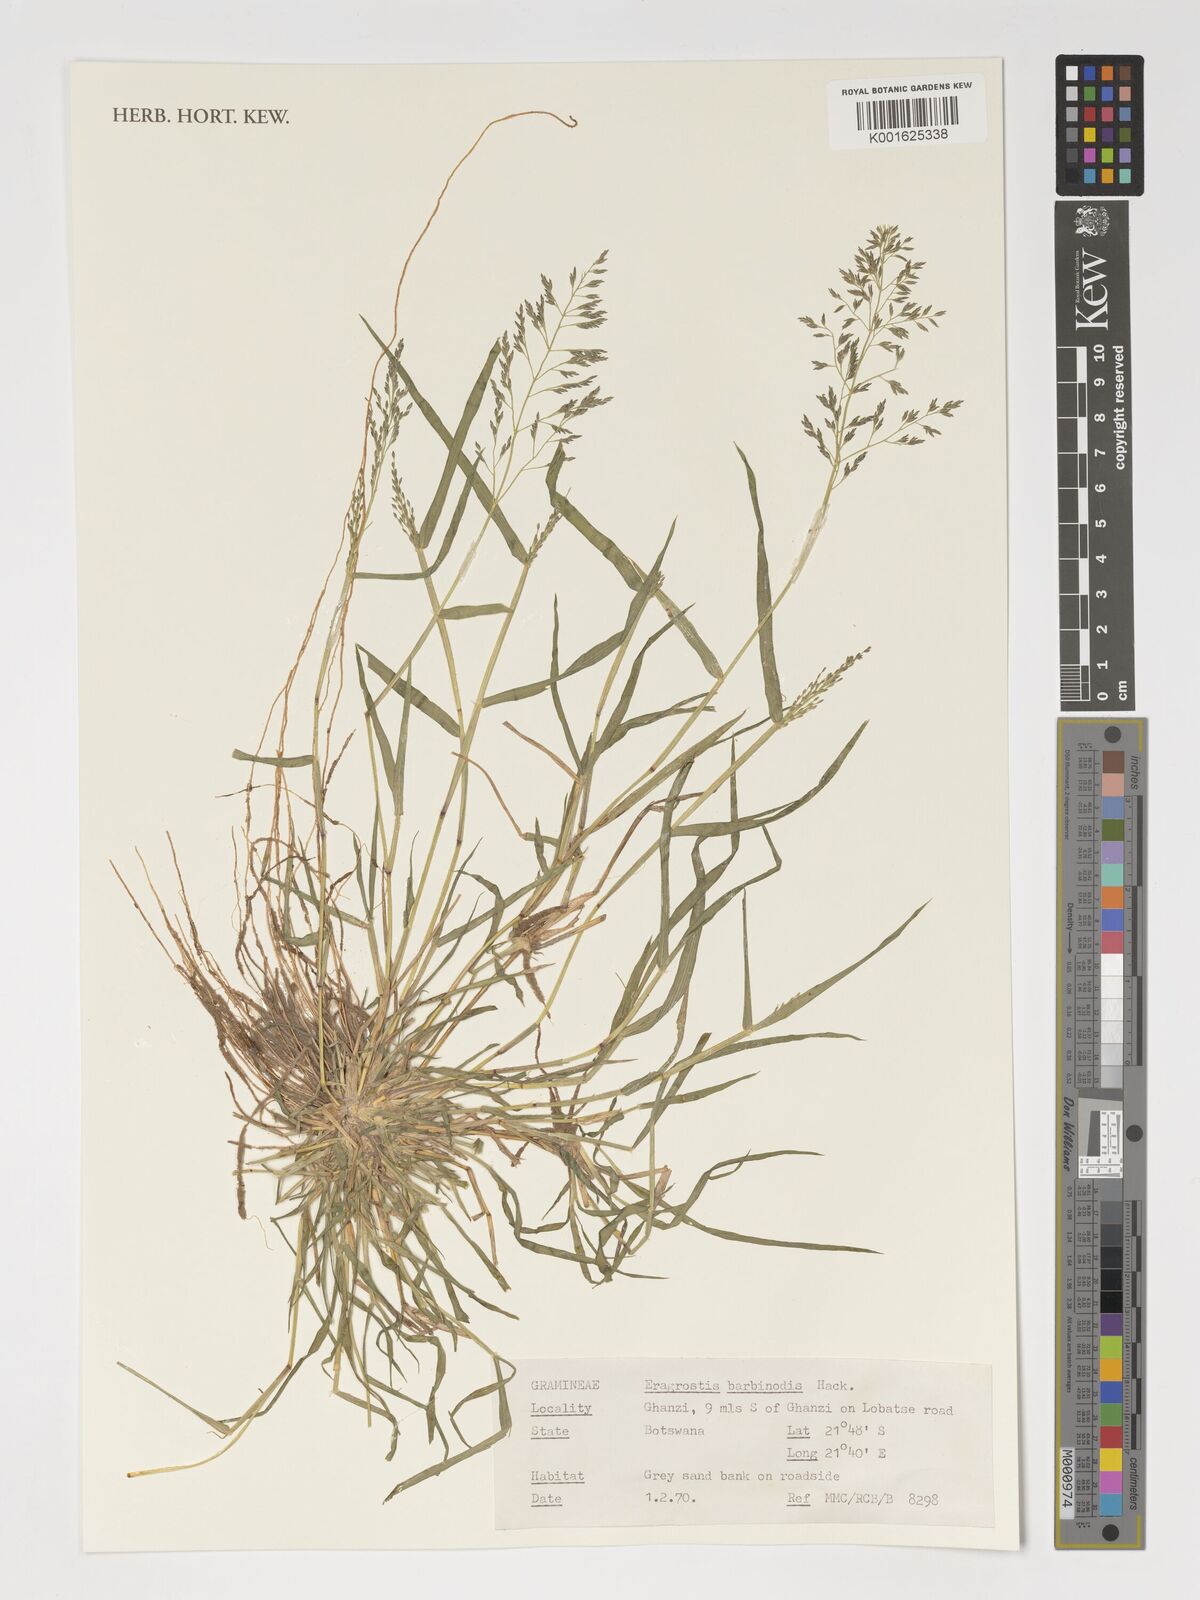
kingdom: Plantae
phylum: Tracheophyta
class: Liliopsida
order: Poales
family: Poaceae
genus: Eragrostis
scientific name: Eragrostis barbinodis
